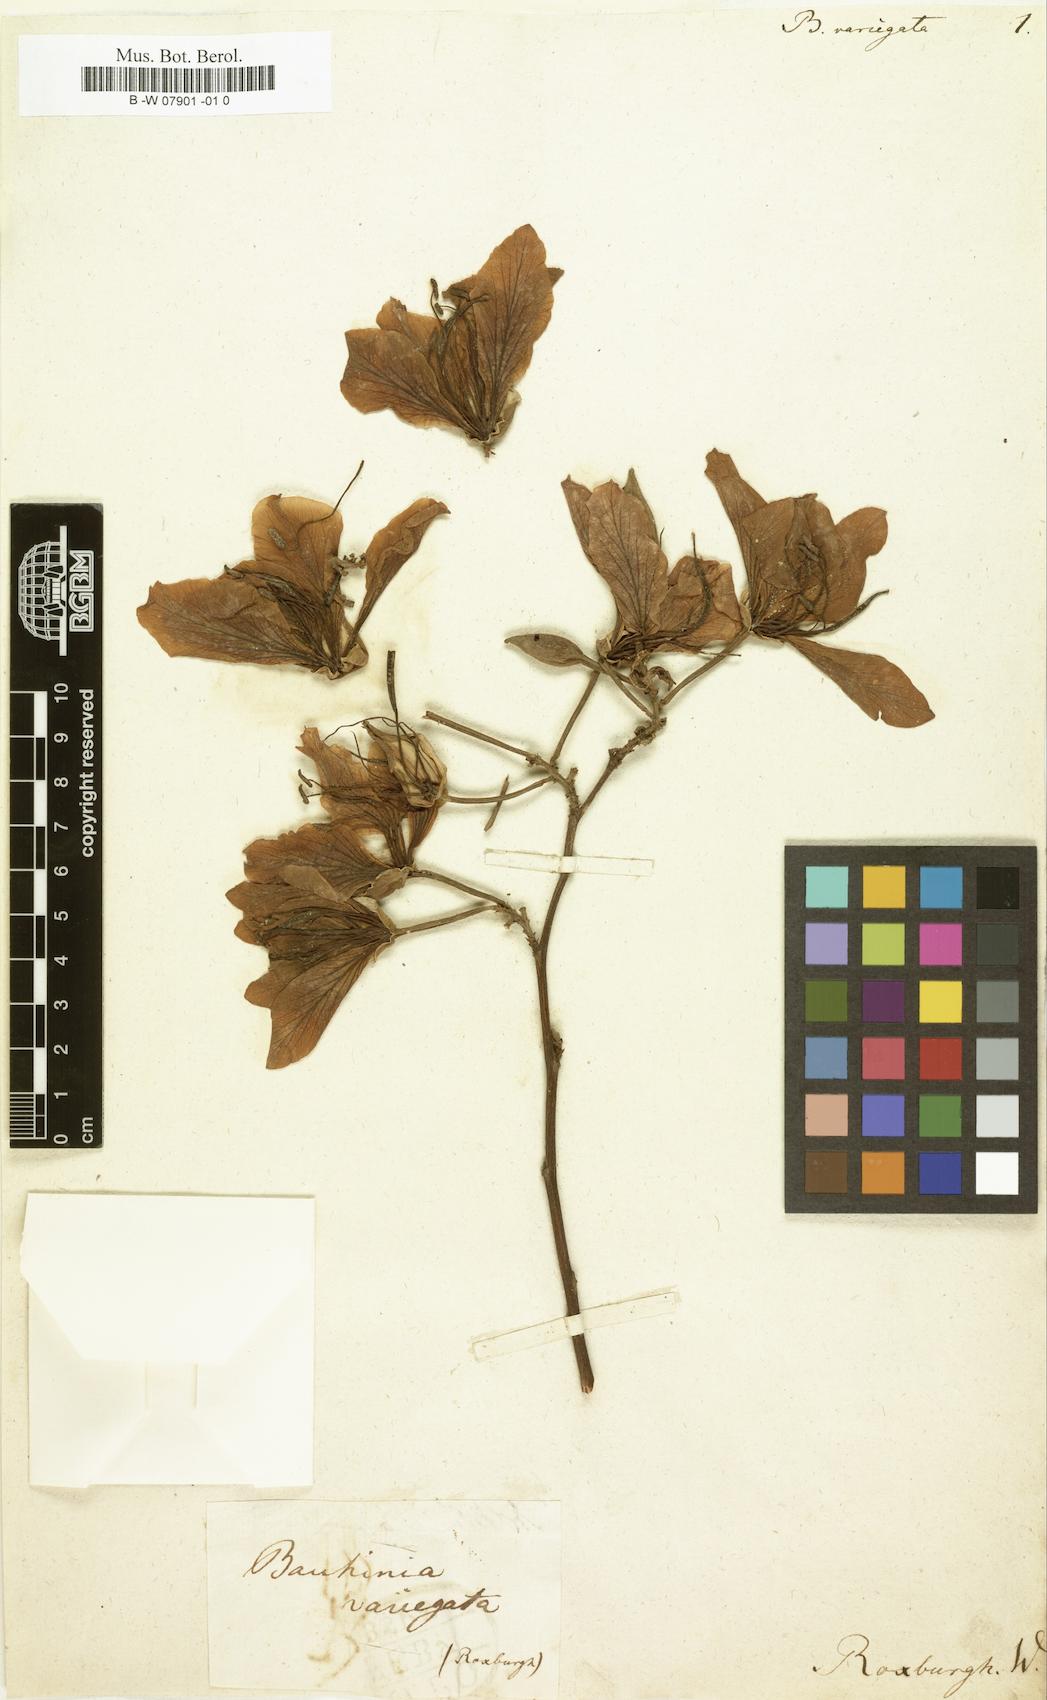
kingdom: Plantae
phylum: Tracheophyta
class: Magnoliopsida
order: Fabales
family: Fabaceae
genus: Bauhinia
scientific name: Bauhinia variegata
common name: Mountain ebony
